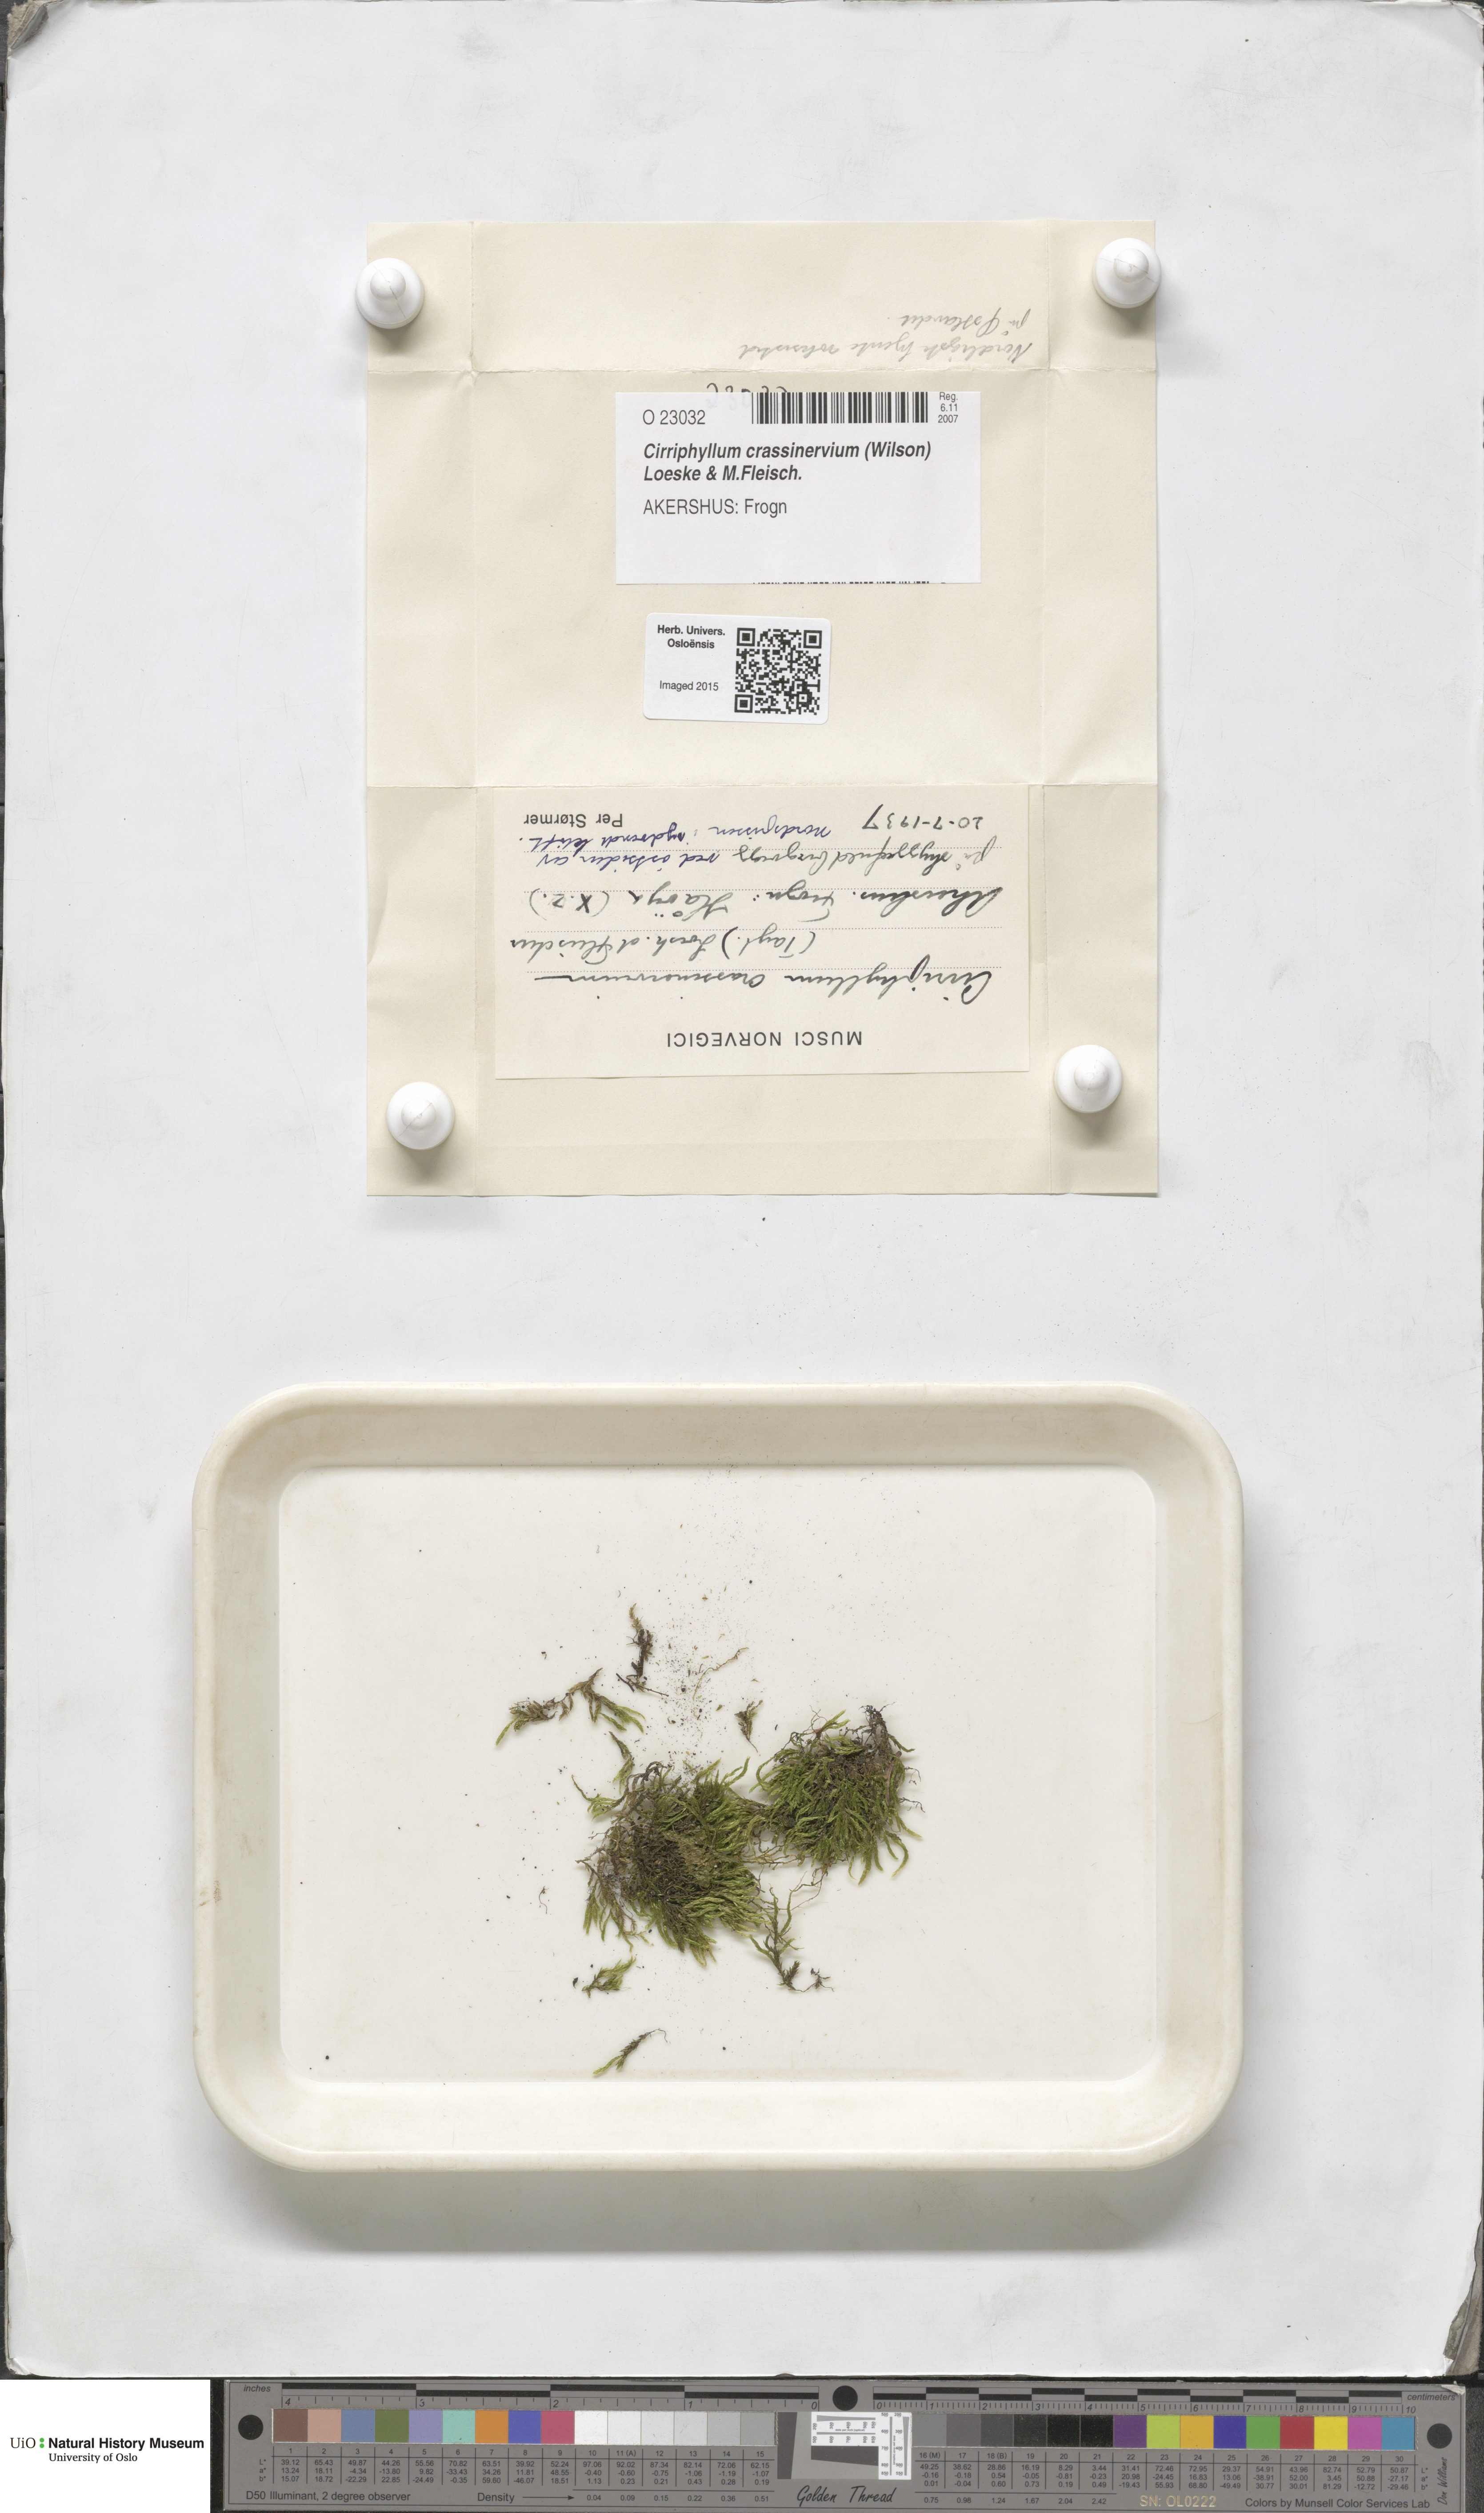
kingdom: Plantae
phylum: Bryophyta
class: Bryopsida
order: Hypnales
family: Brachytheciaceae
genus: Cirriphyllum
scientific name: Cirriphyllum crassinervium
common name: Beech feather-moss
